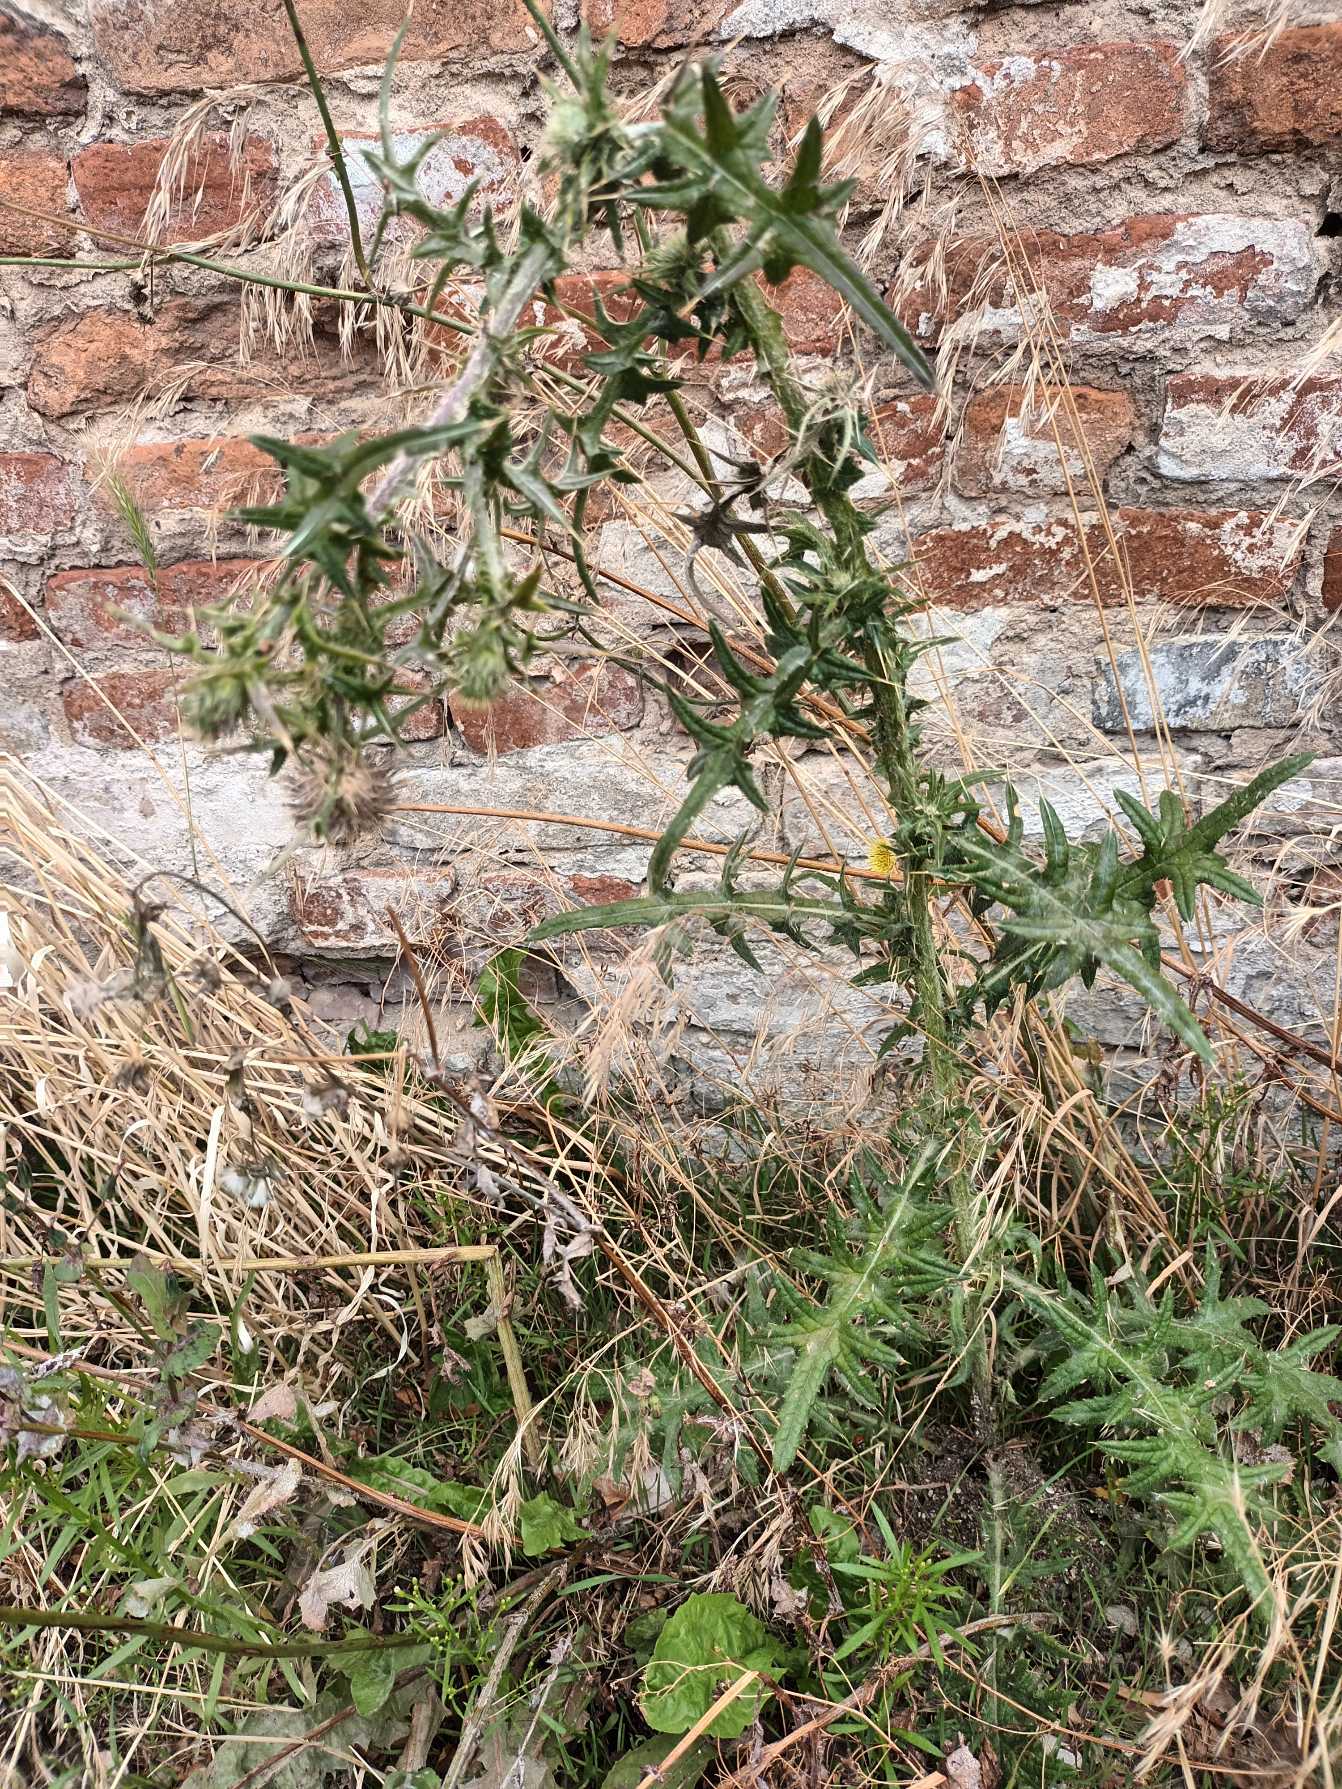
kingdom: Plantae
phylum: Tracheophyta
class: Magnoliopsida
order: Asterales
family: Asteraceae
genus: Cirsium
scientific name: Cirsium vulgare
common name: Horse-tidsel
